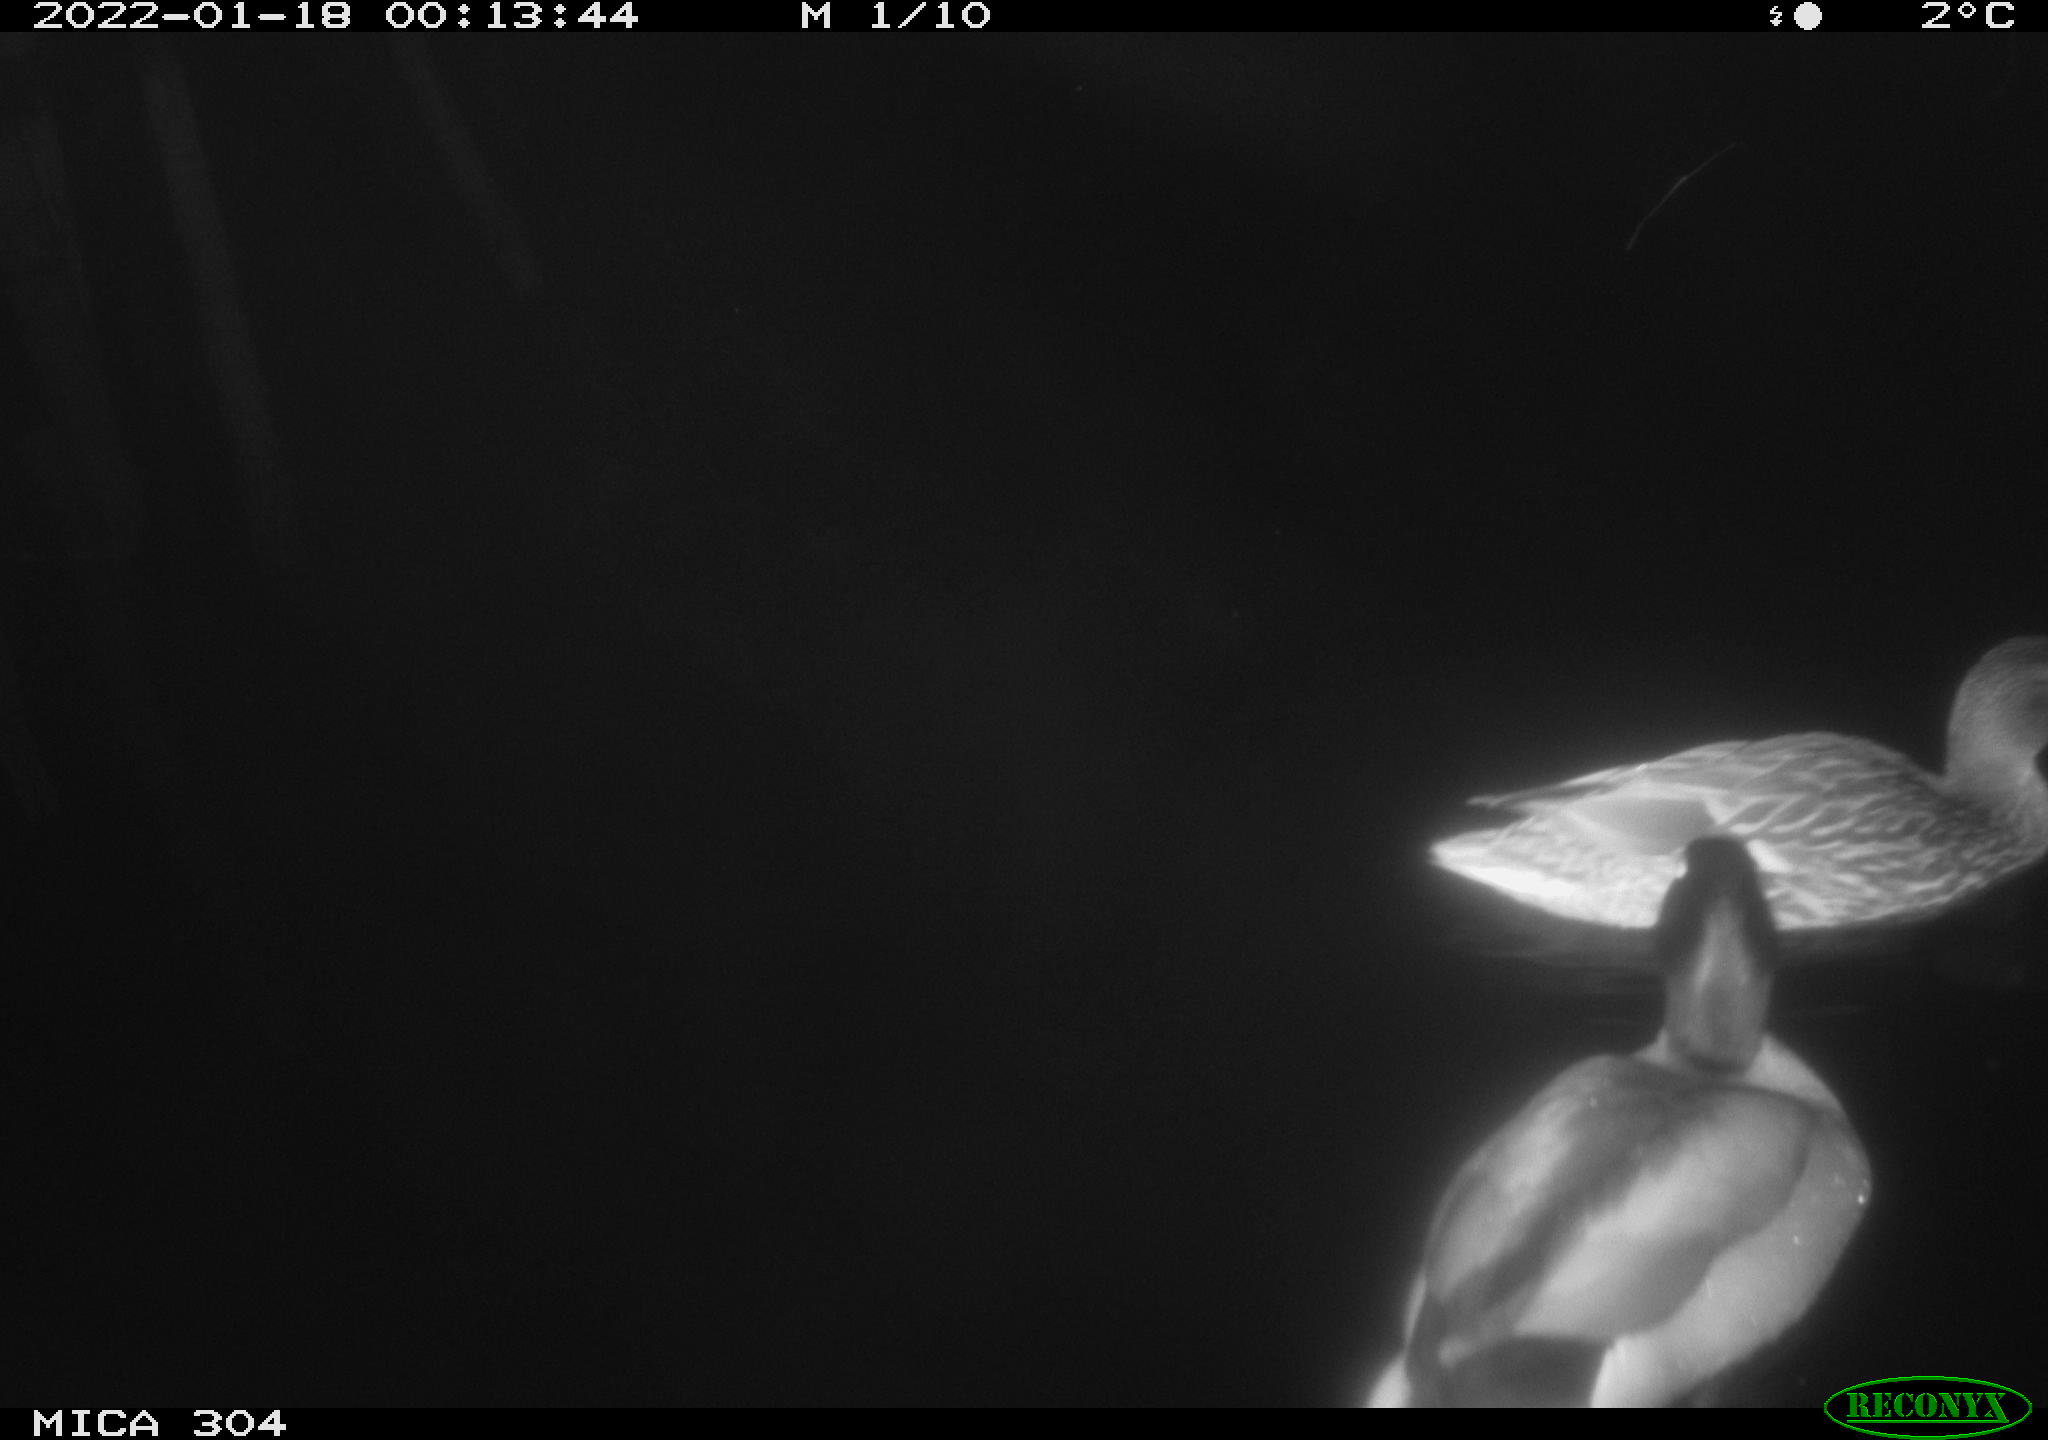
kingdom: Animalia
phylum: Chordata
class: Aves
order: Anseriformes
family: Anatidae
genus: Anas
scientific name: Anas
